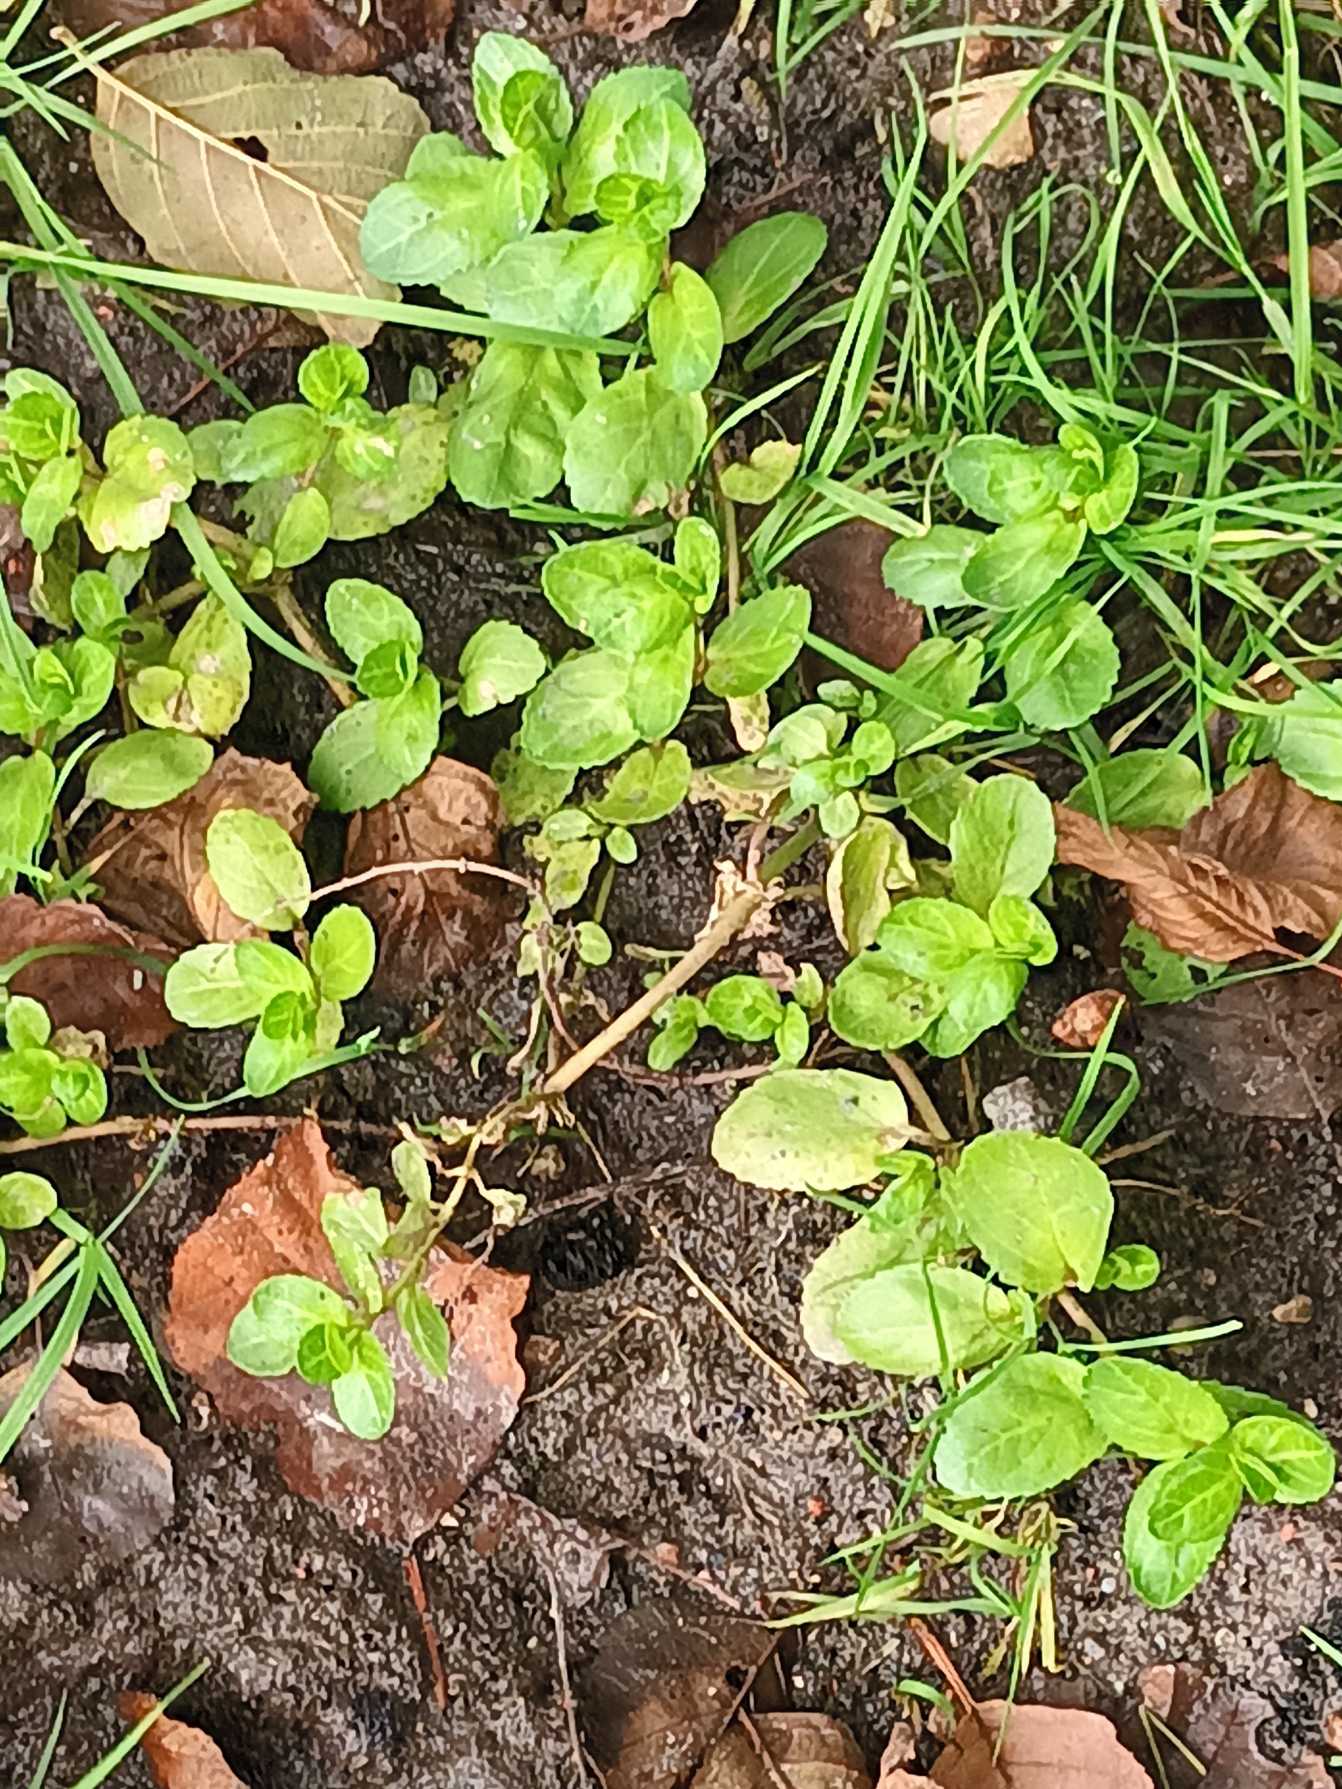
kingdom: Plantae
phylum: Tracheophyta
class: Magnoliopsida
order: Lamiales
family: Plantaginaceae
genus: Veronica
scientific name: Veronica beccabunga
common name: Tykbladet ærenpris
